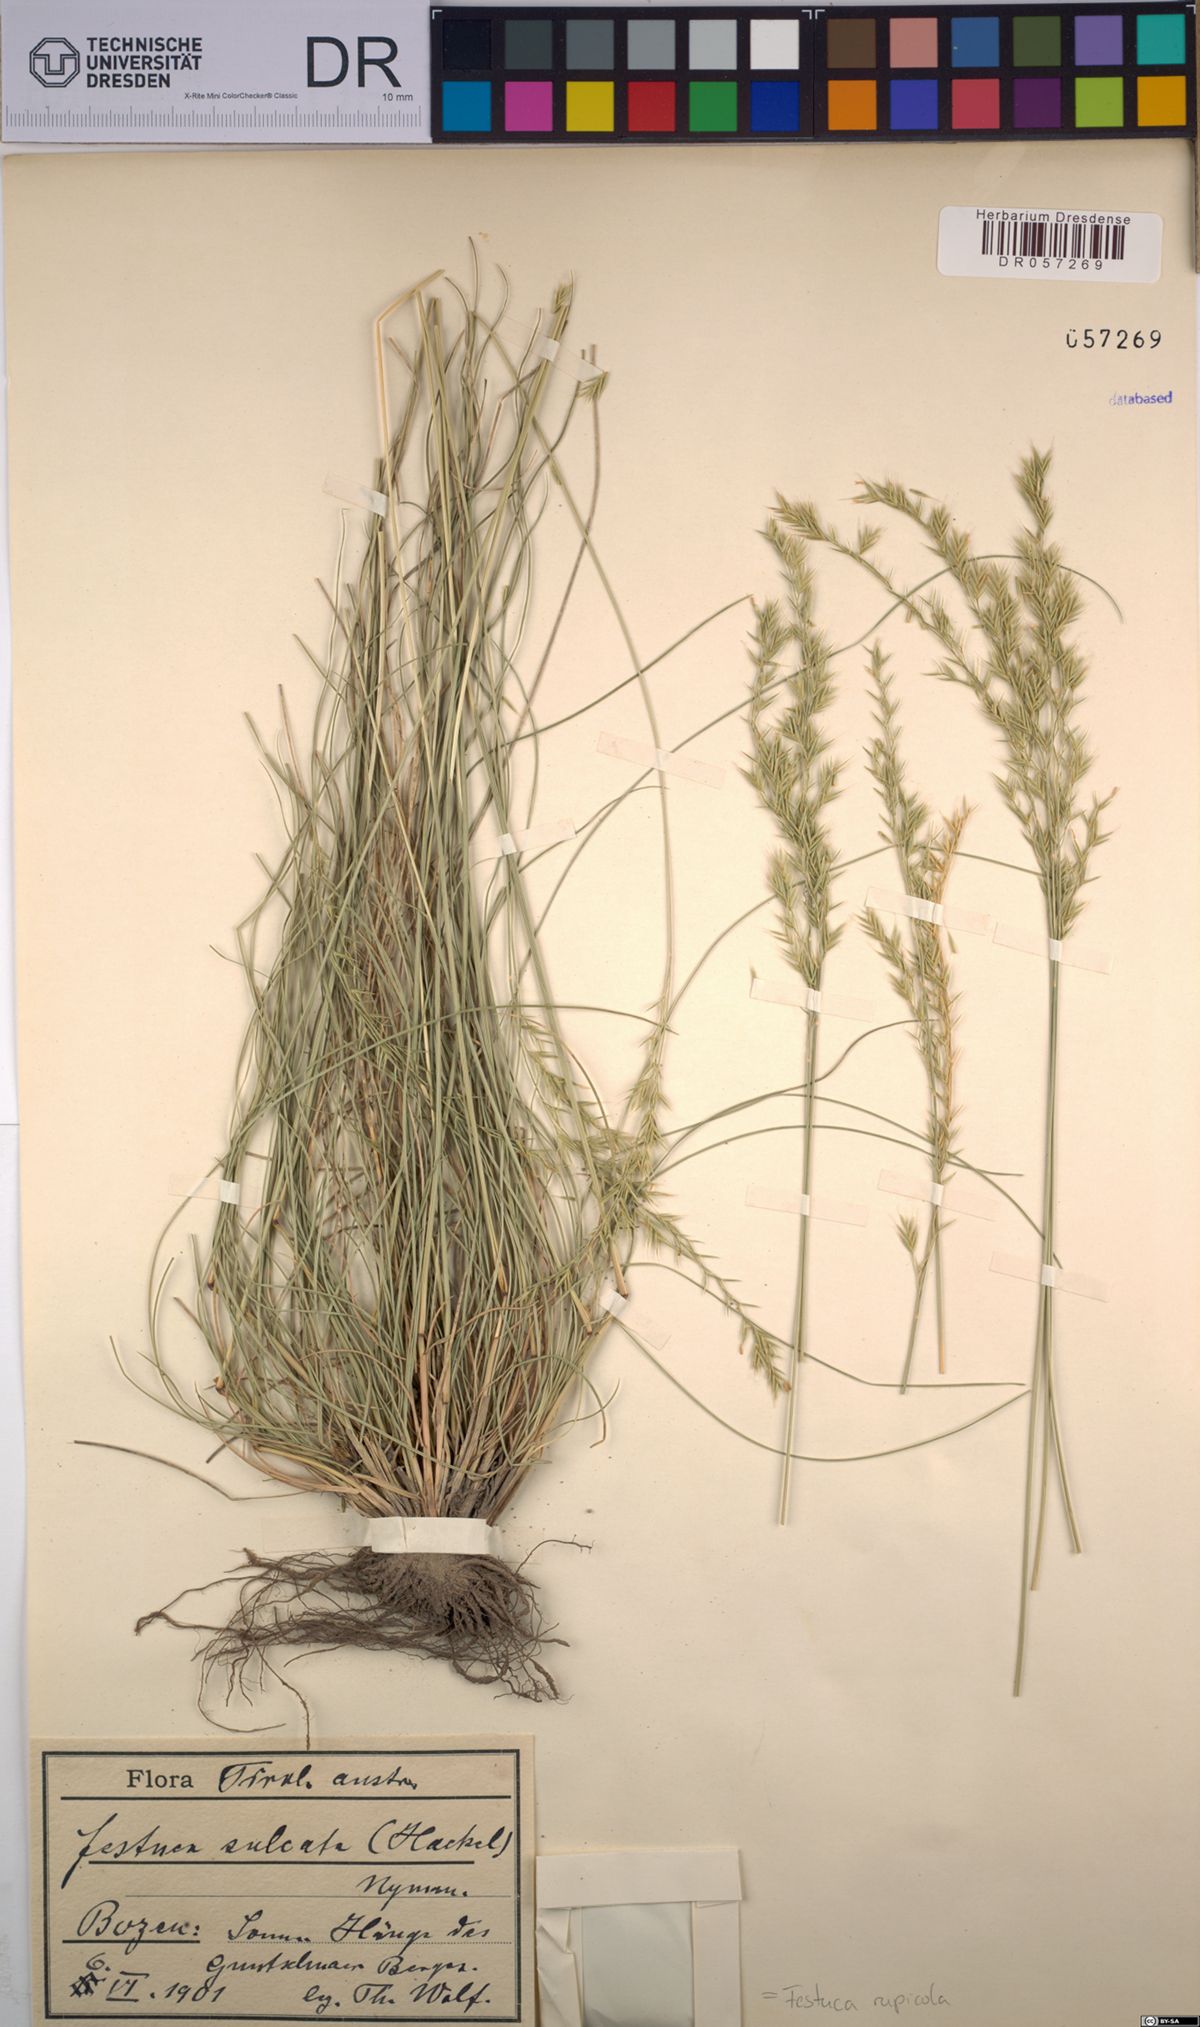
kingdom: Plantae
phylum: Tracheophyta
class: Liliopsida
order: Poales
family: Poaceae
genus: Festuca
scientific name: Festuca rupicola
